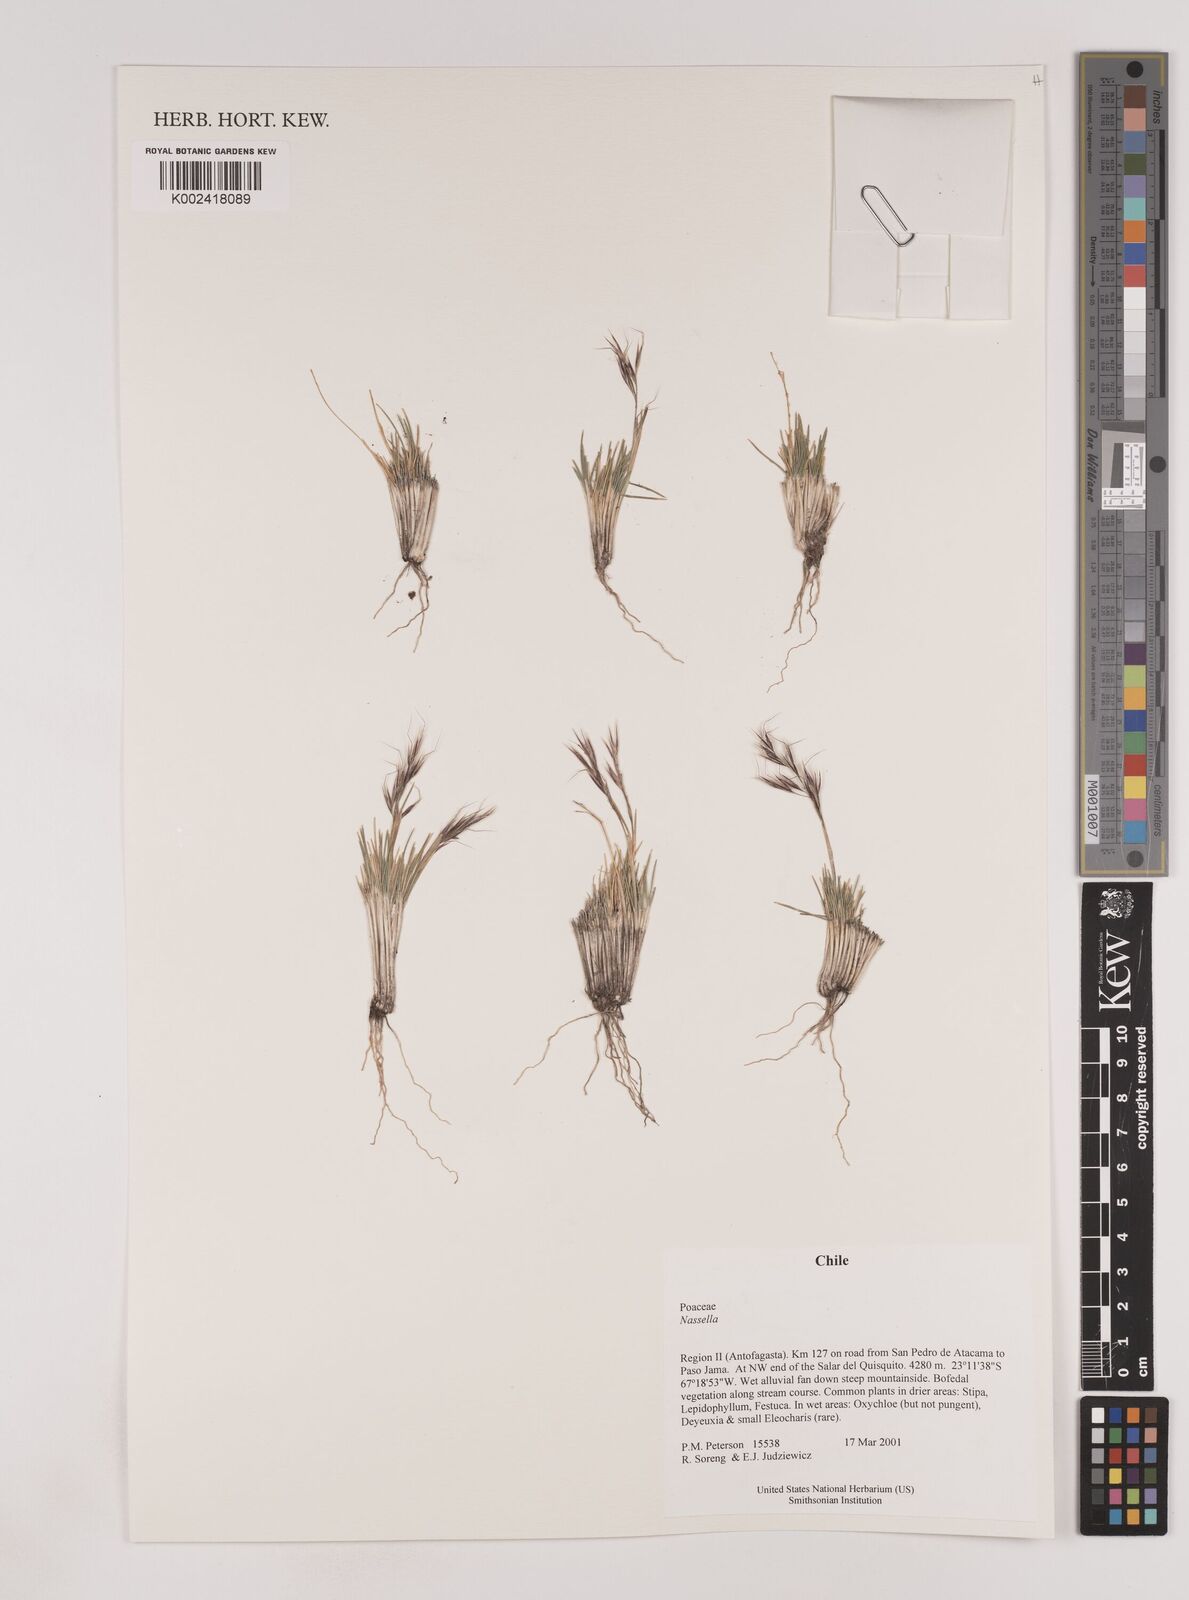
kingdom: Plantae
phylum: Tracheophyta
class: Liliopsida
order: Poales
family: Poaceae
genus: Nassella
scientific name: Nassella
